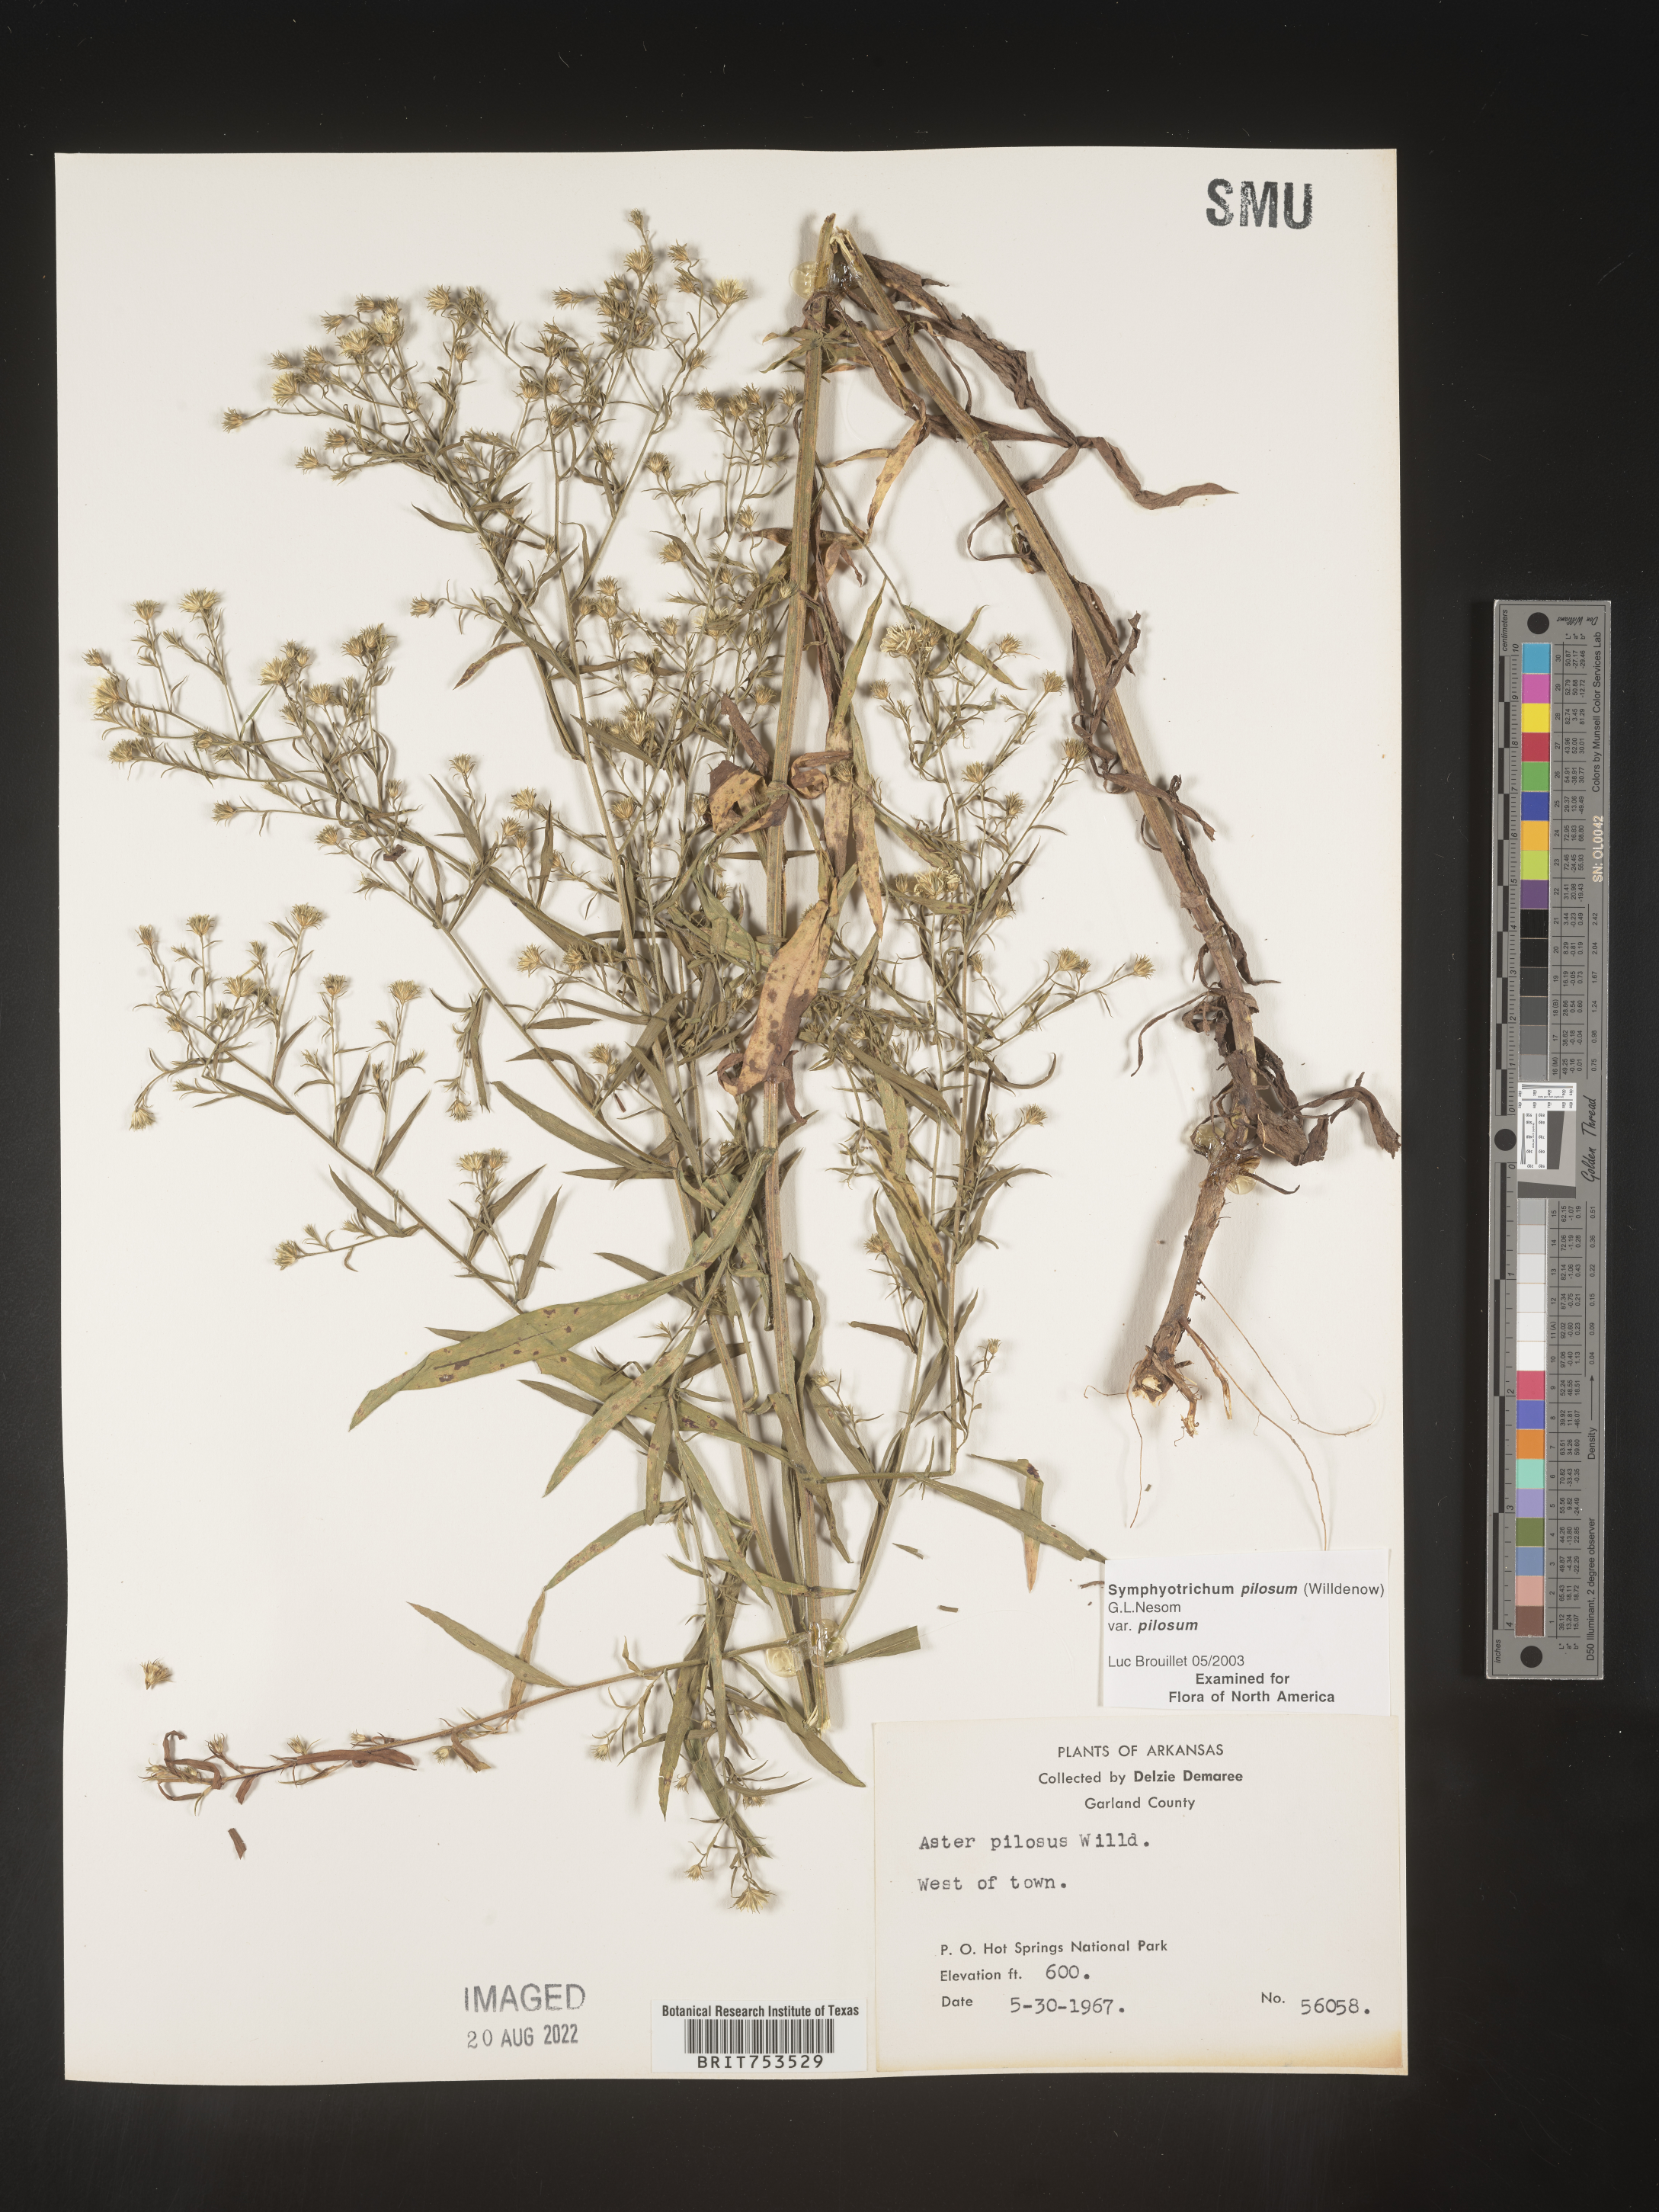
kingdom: Plantae
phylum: Tracheophyta
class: Magnoliopsida
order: Asterales
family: Asteraceae
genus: Symphyotrichum
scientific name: Symphyotrichum pilosum
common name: Awl aster
